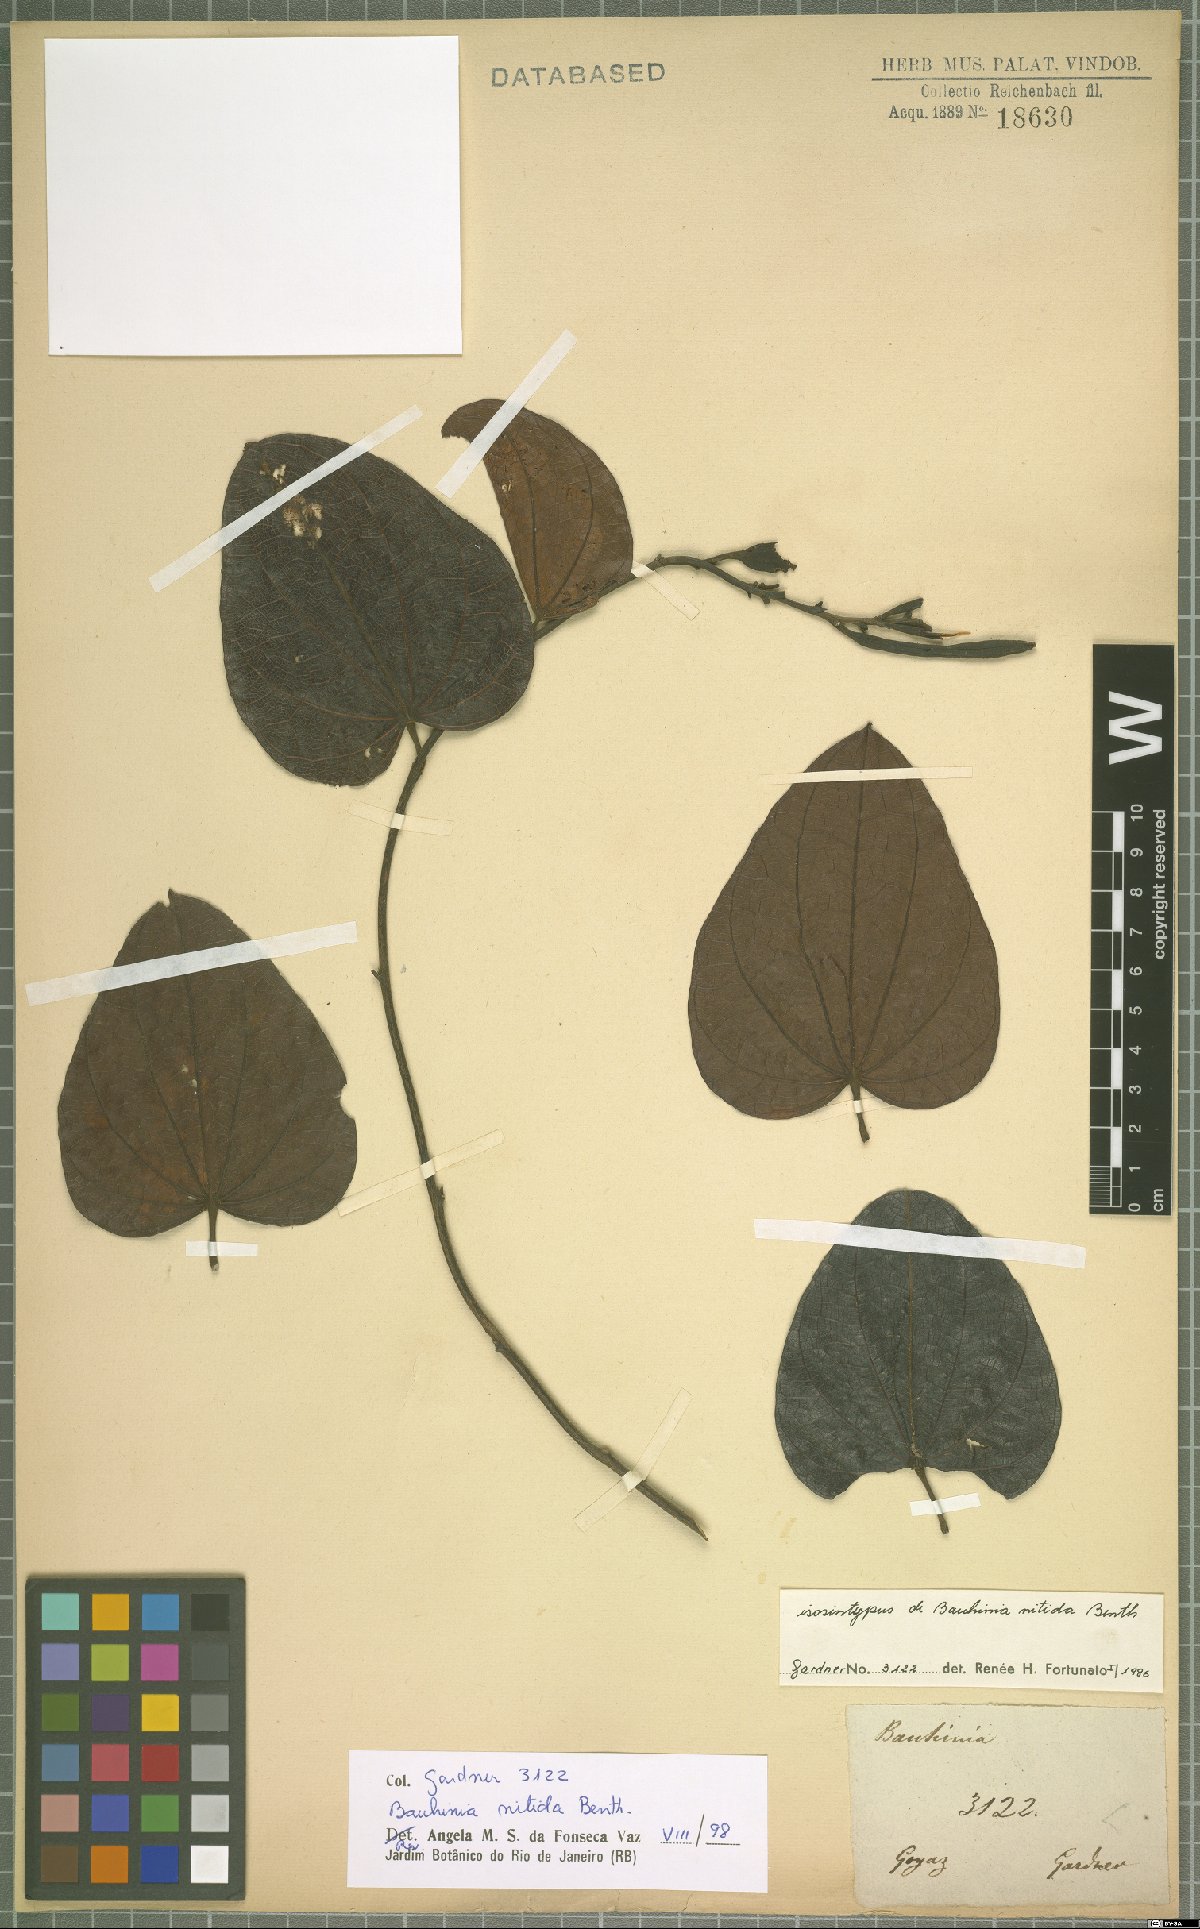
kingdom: Plantae
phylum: Tracheophyta
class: Magnoliopsida
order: Fabales
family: Fabaceae
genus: Bauhinia
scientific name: Bauhinia dubia
